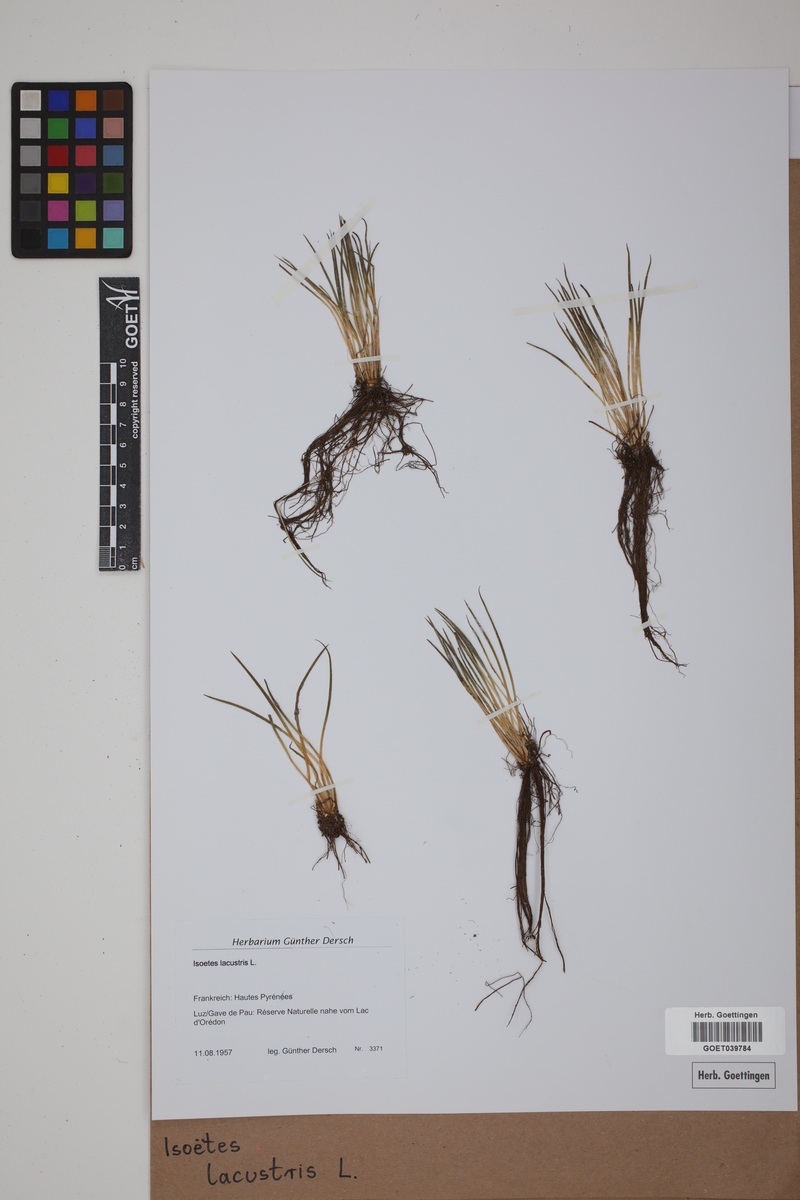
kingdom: Plantae
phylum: Tracheophyta
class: Lycopodiopsida
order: Isoetales
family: Isoetaceae
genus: Isoetes
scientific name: Isoetes lacustris
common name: Common quillwort
